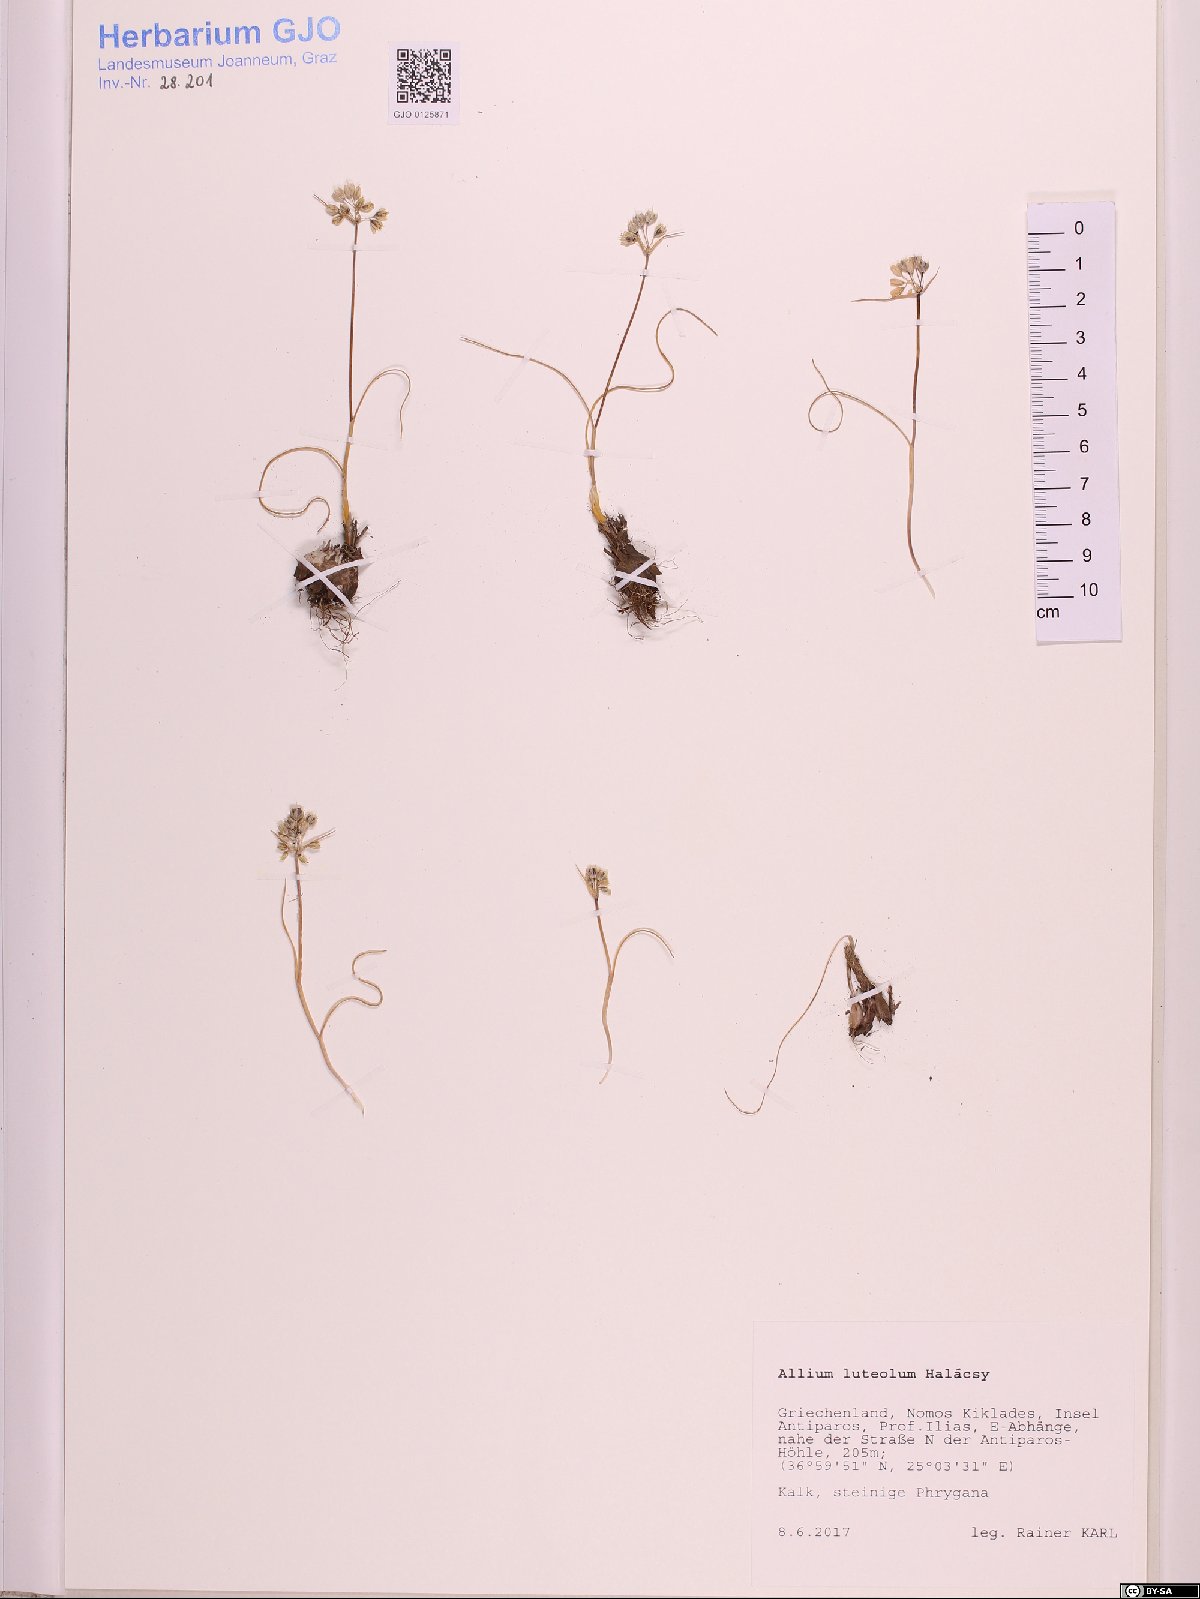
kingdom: Plantae
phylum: Tracheophyta
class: Liliopsida
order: Asparagales
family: Amaryllidaceae
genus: Allium
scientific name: Allium luteolum
